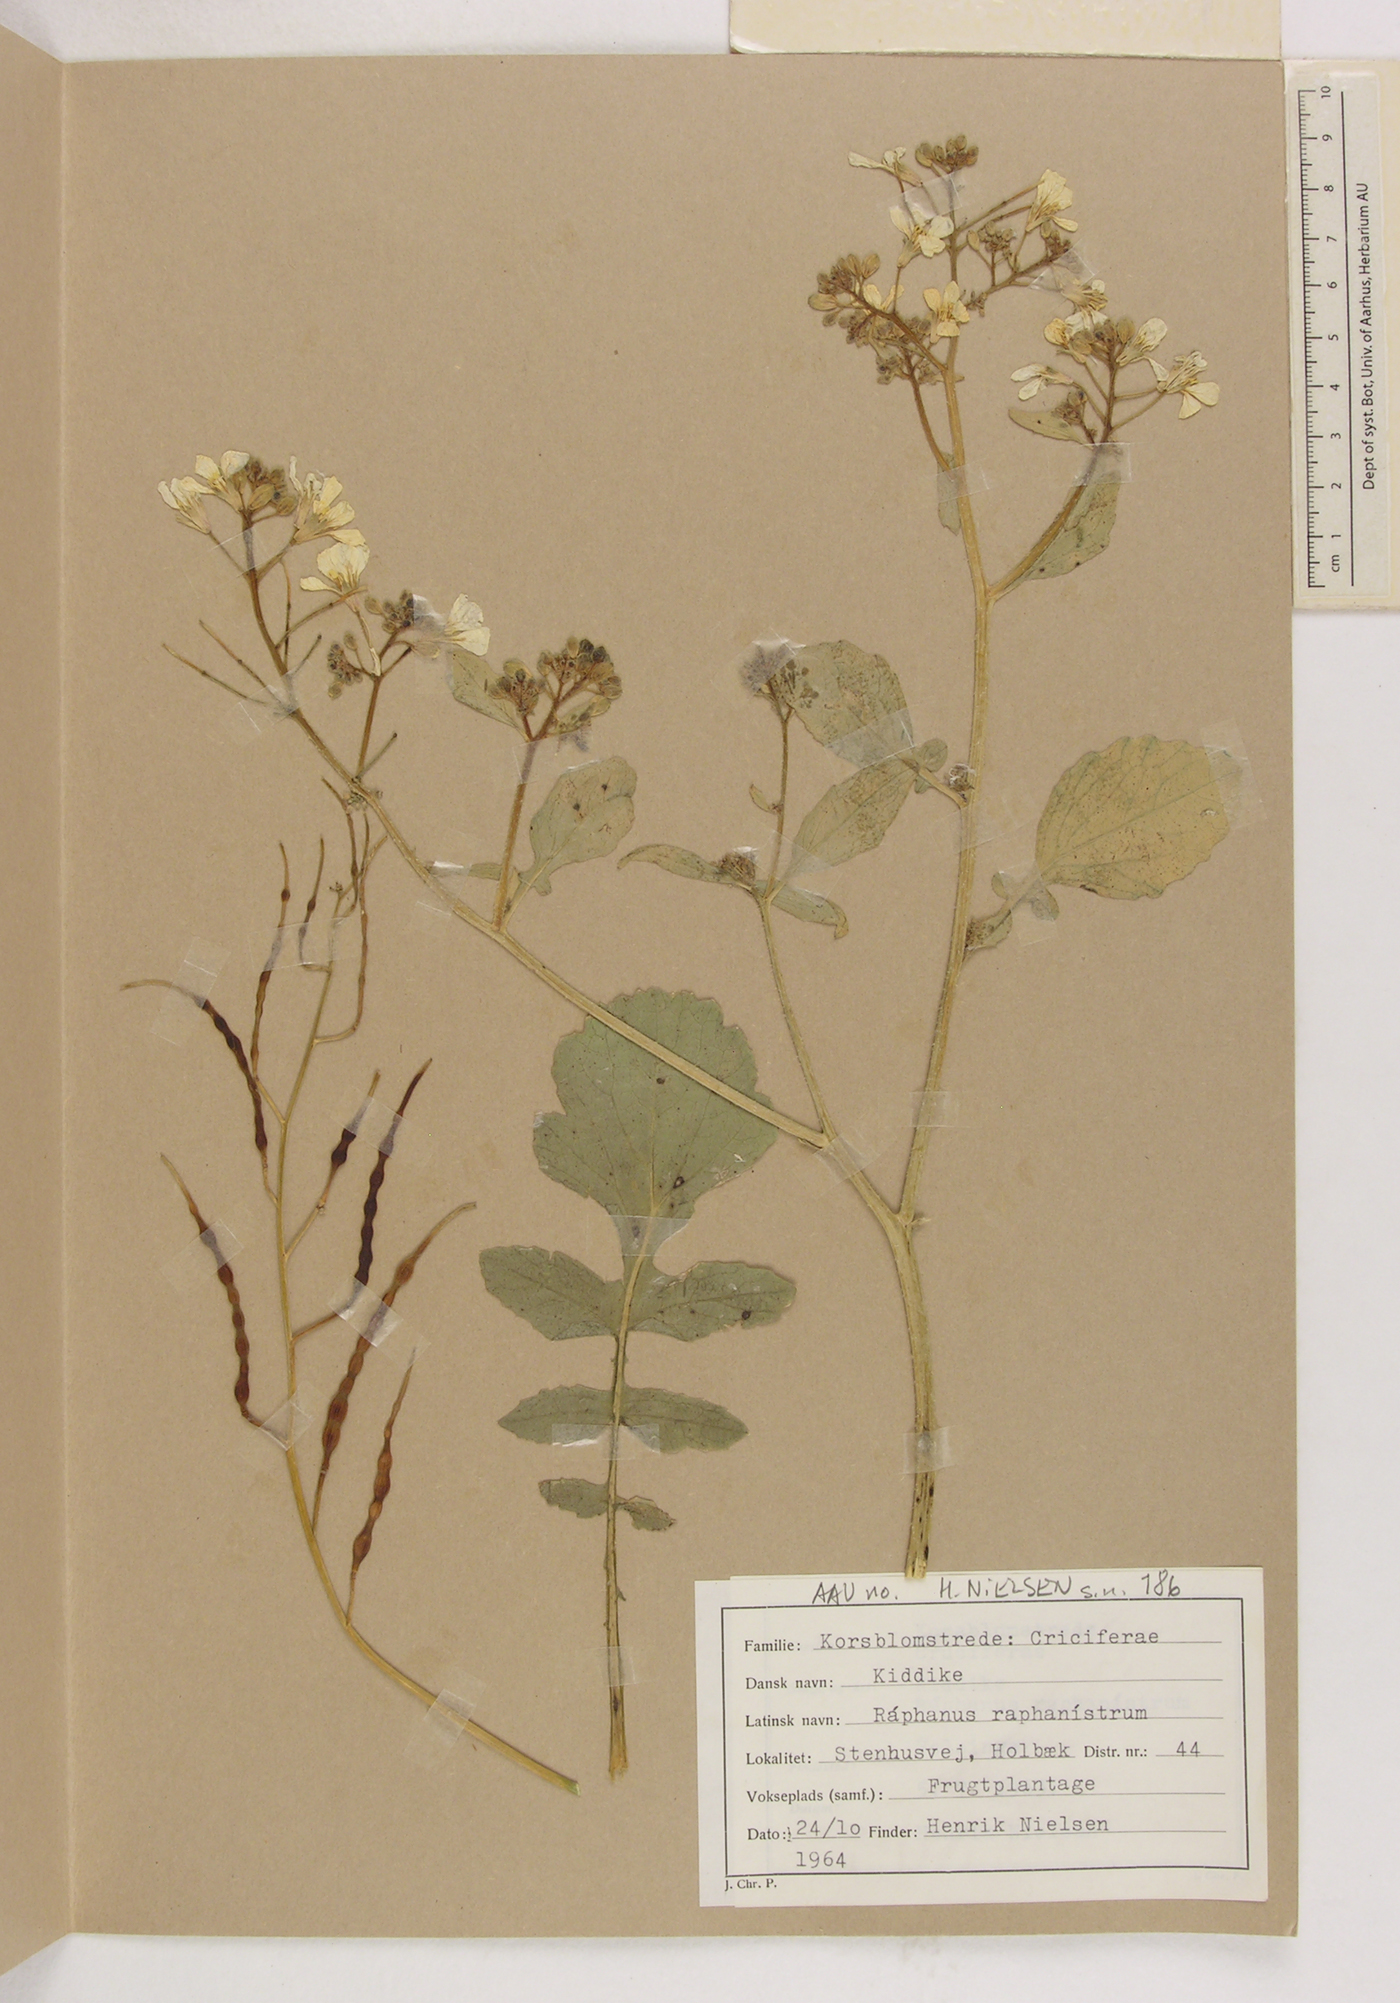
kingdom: Plantae
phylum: Tracheophyta
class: Magnoliopsida
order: Brassicales
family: Brassicaceae
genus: Raphanus
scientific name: Raphanus raphanistrum
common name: Wild radish
